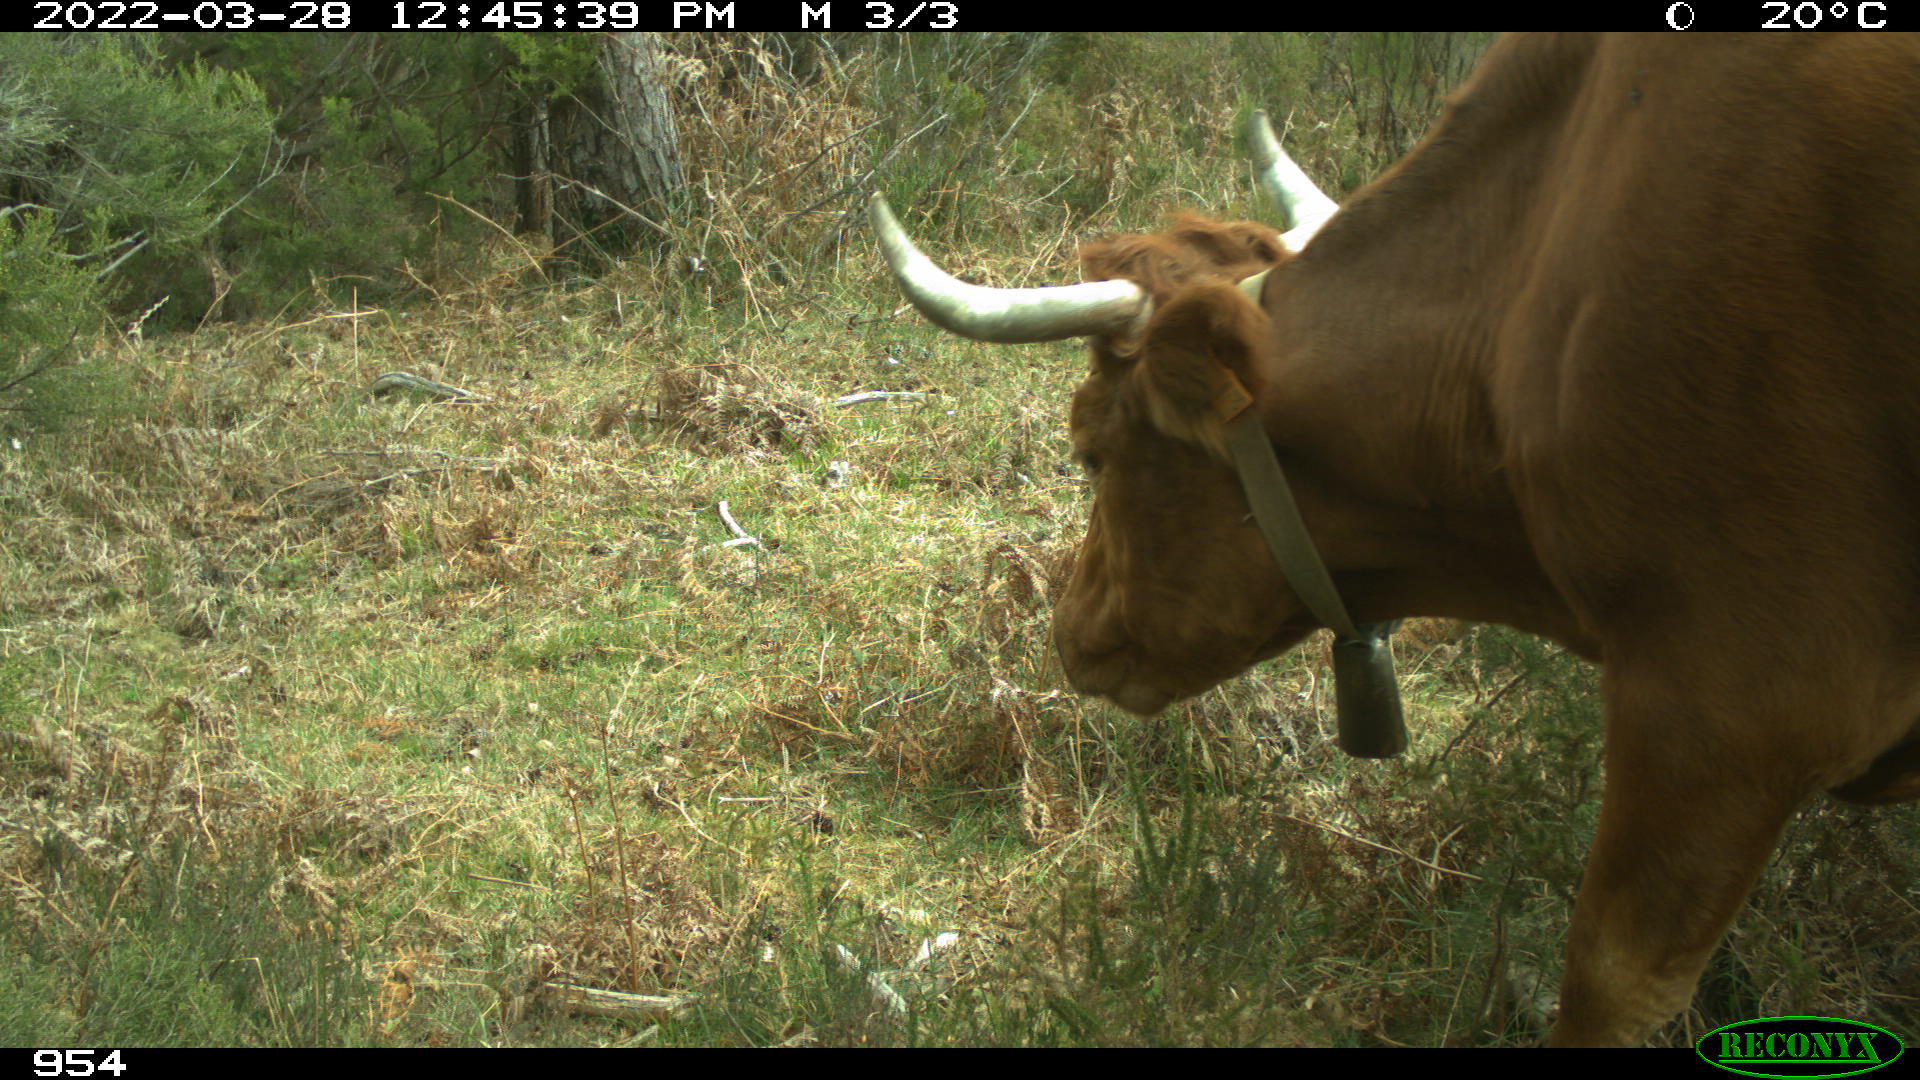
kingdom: Animalia
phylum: Chordata
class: Mammalia
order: Artiodactyla
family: Bovidae
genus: Bos
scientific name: Bos taurus
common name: Domesticated cattle
